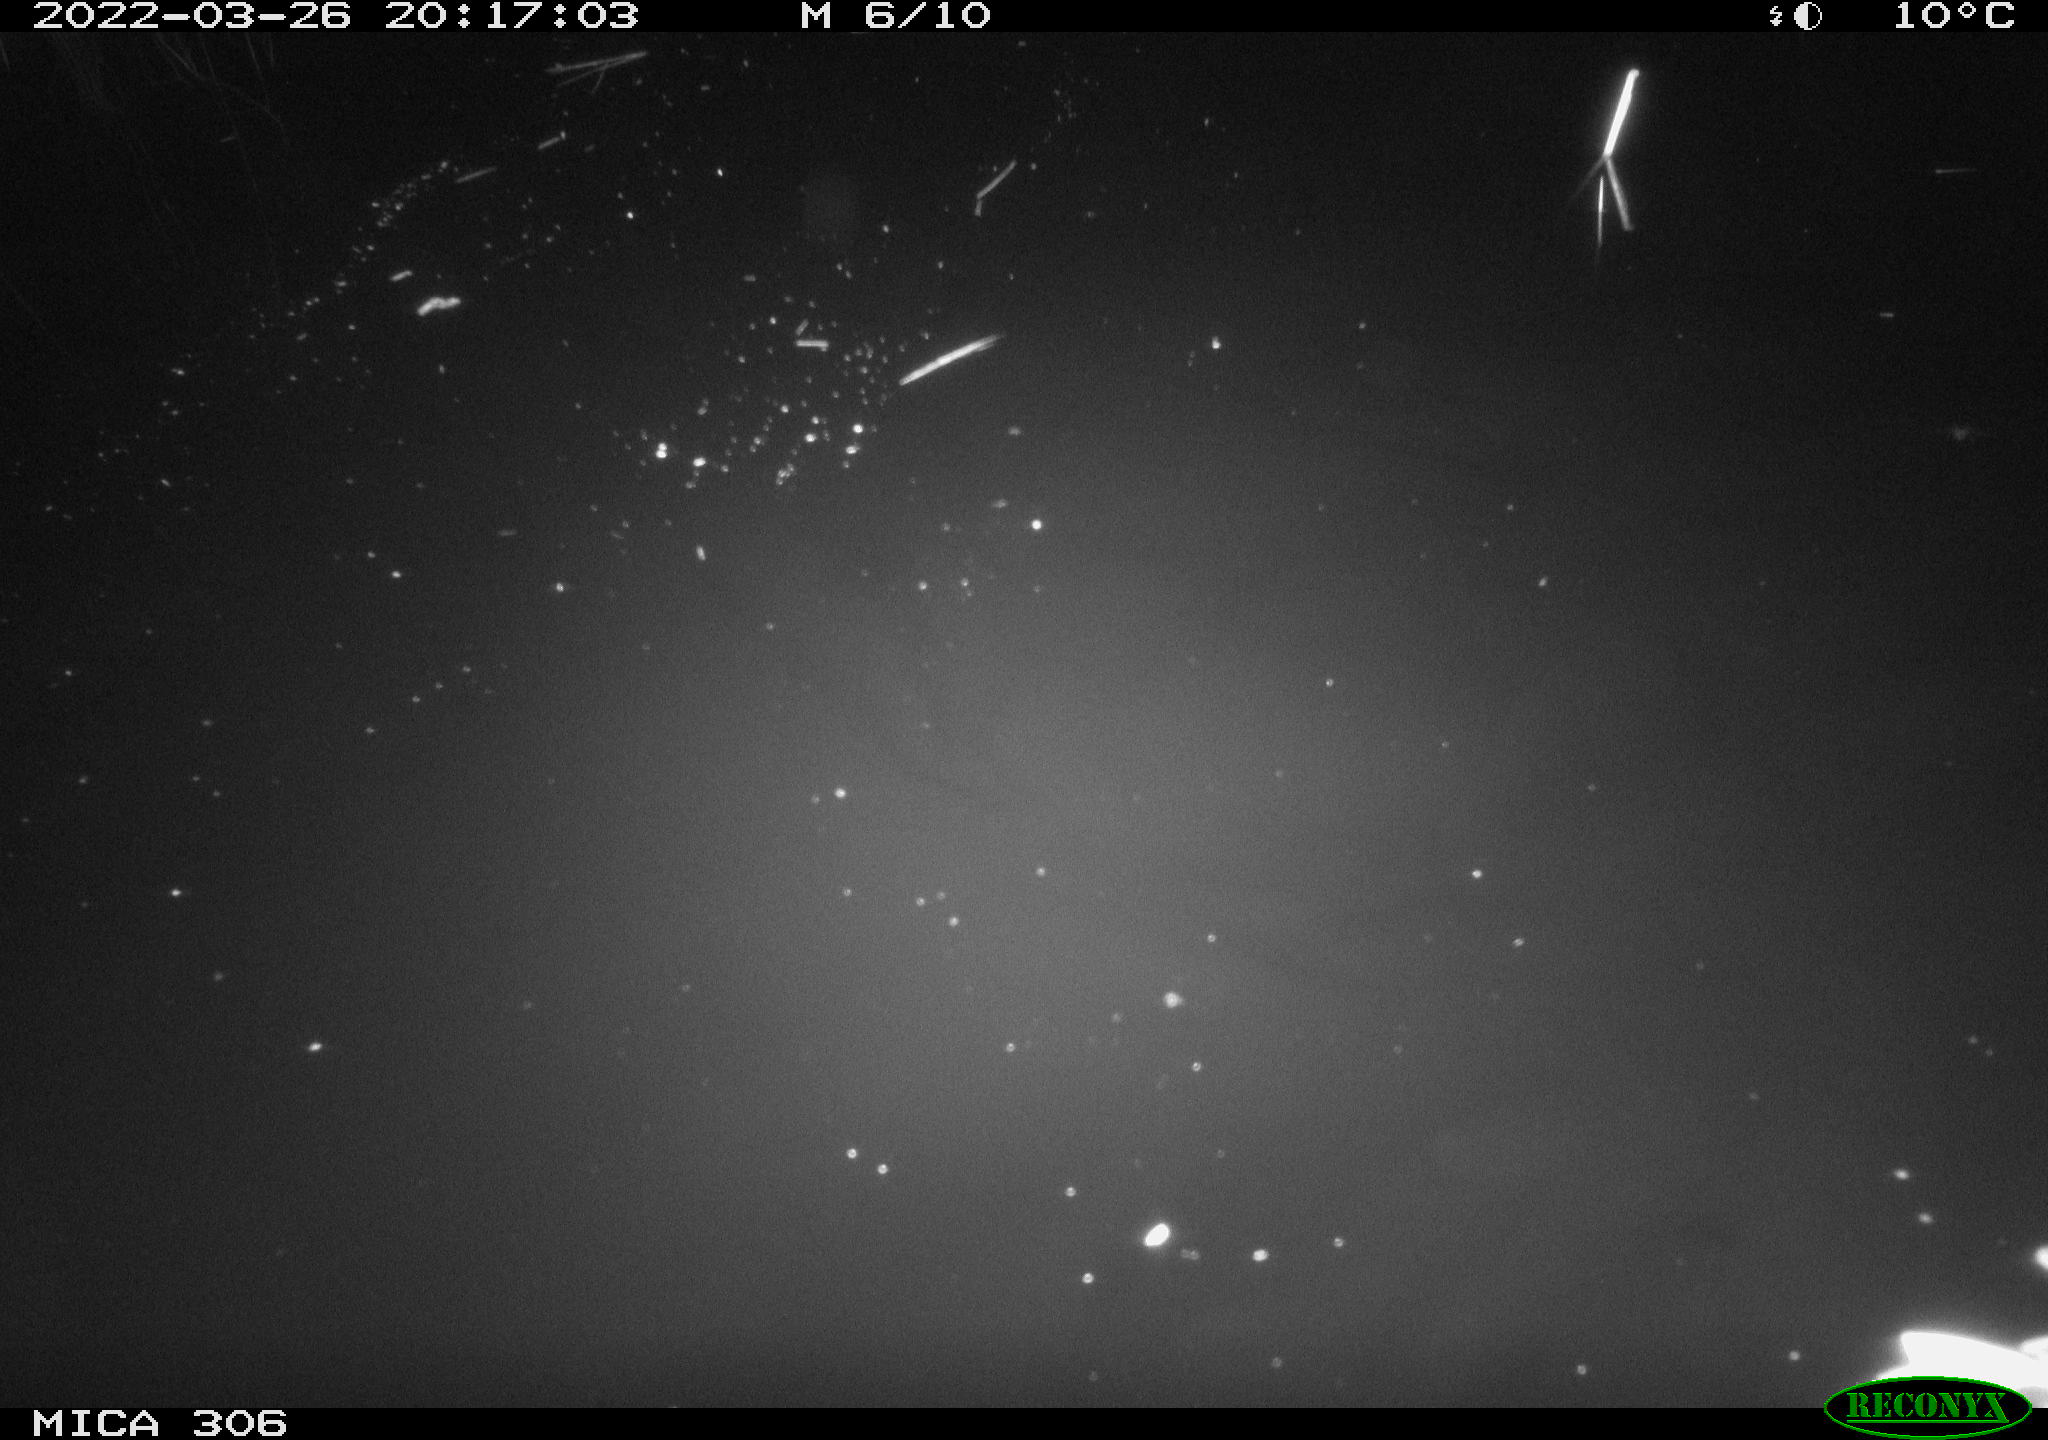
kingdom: Animalia
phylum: Chordata
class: Aves
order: Anseriformes
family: Anatidae
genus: Anas
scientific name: Anas platyrhynchos
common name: Mallard
